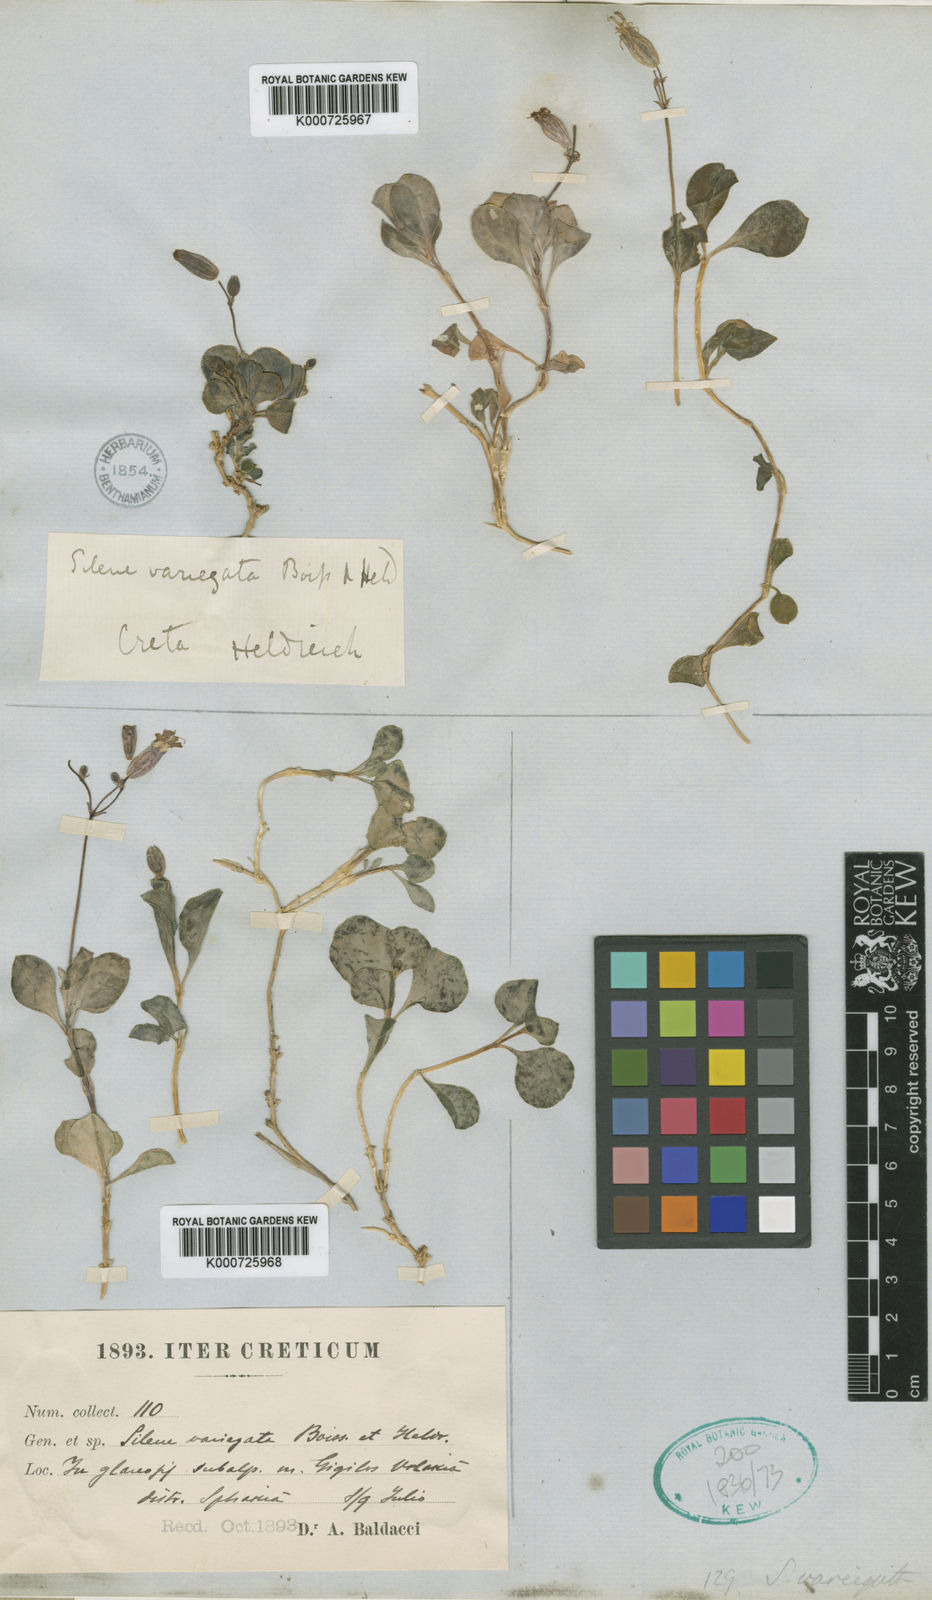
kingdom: Plantae
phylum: Tracheophyta
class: Magnoliopsida
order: Caryophyllales
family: Caryophyllaceae
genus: Silene
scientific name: Silene variegata
